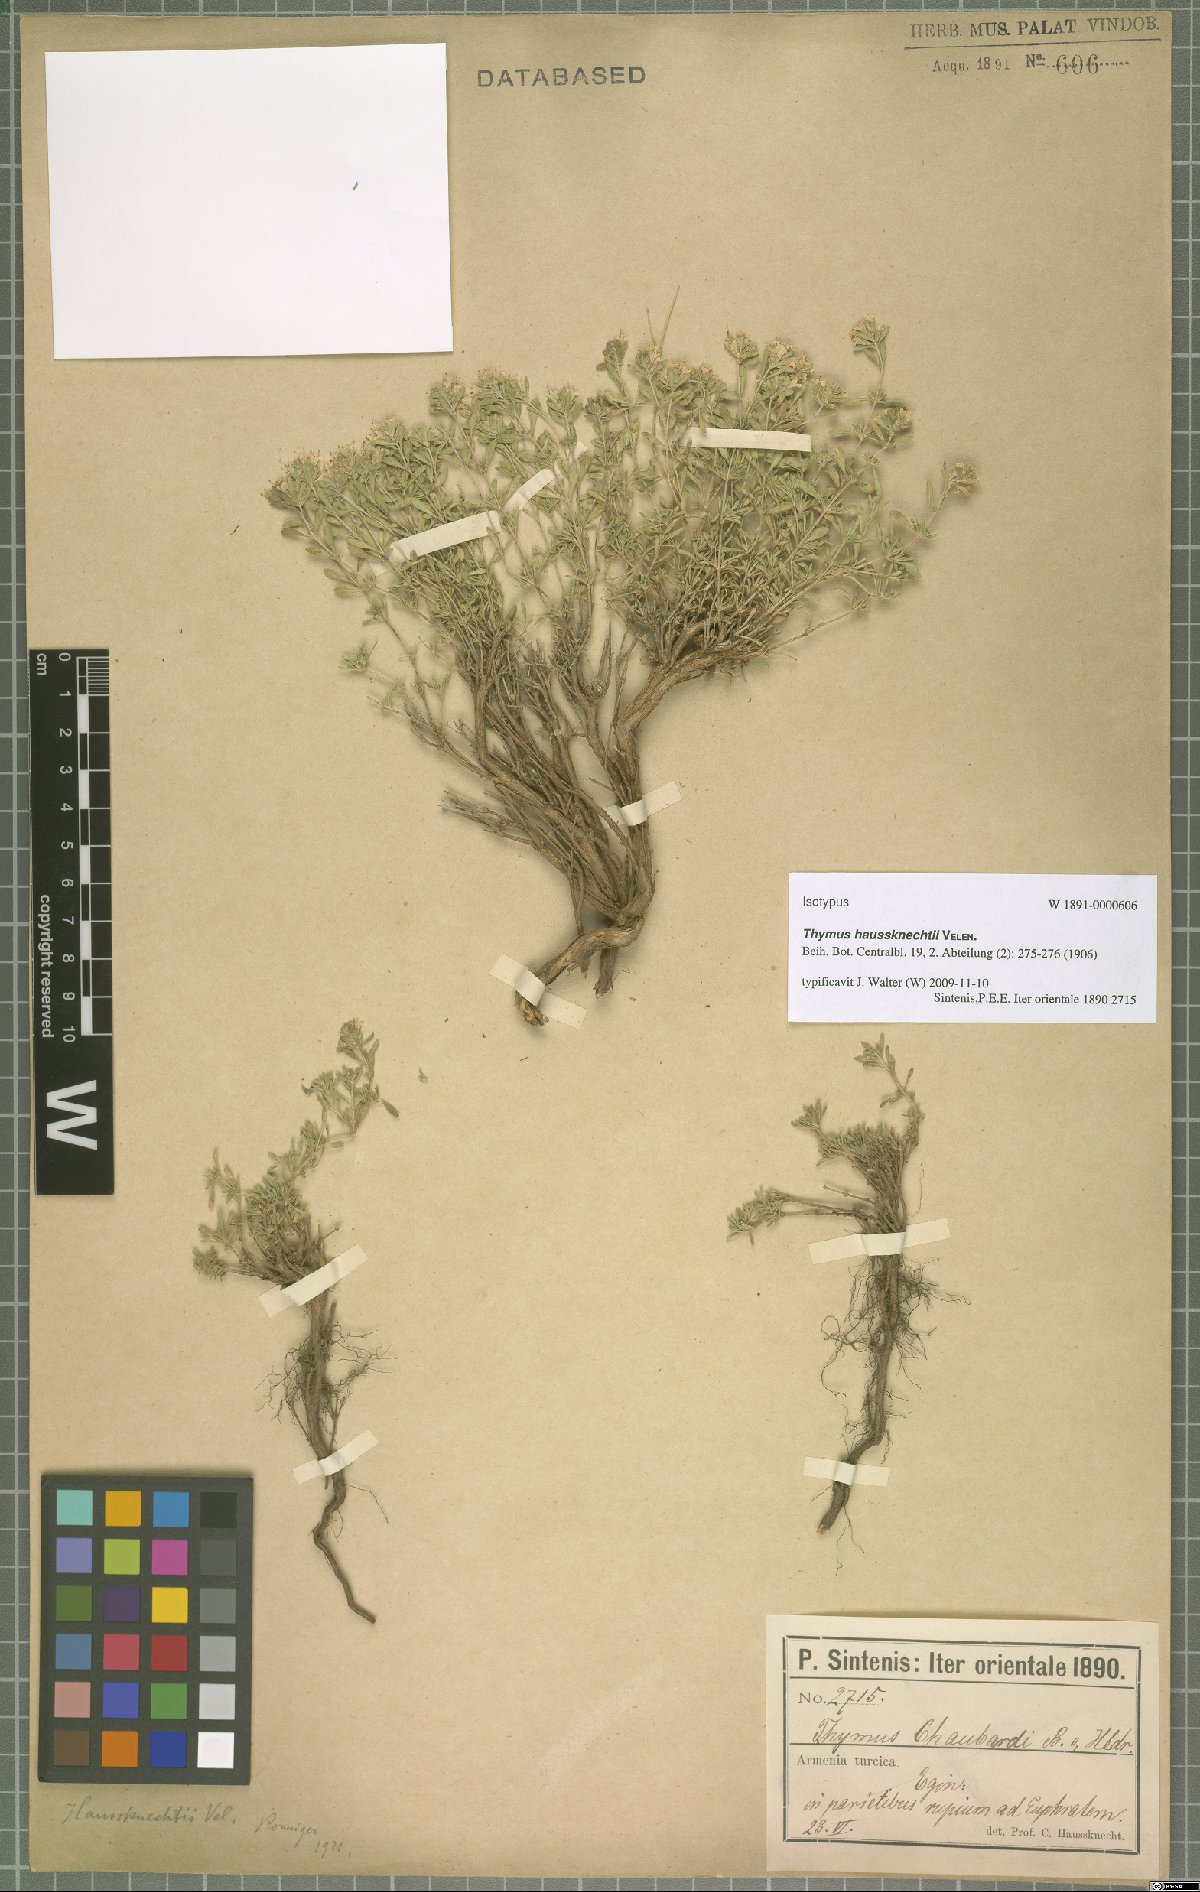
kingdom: Plantae
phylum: Tracheophyta
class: Magnoliopsida
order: Lamiales
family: Lamiaceae
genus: Thymus
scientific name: Thymus haussknechtii
